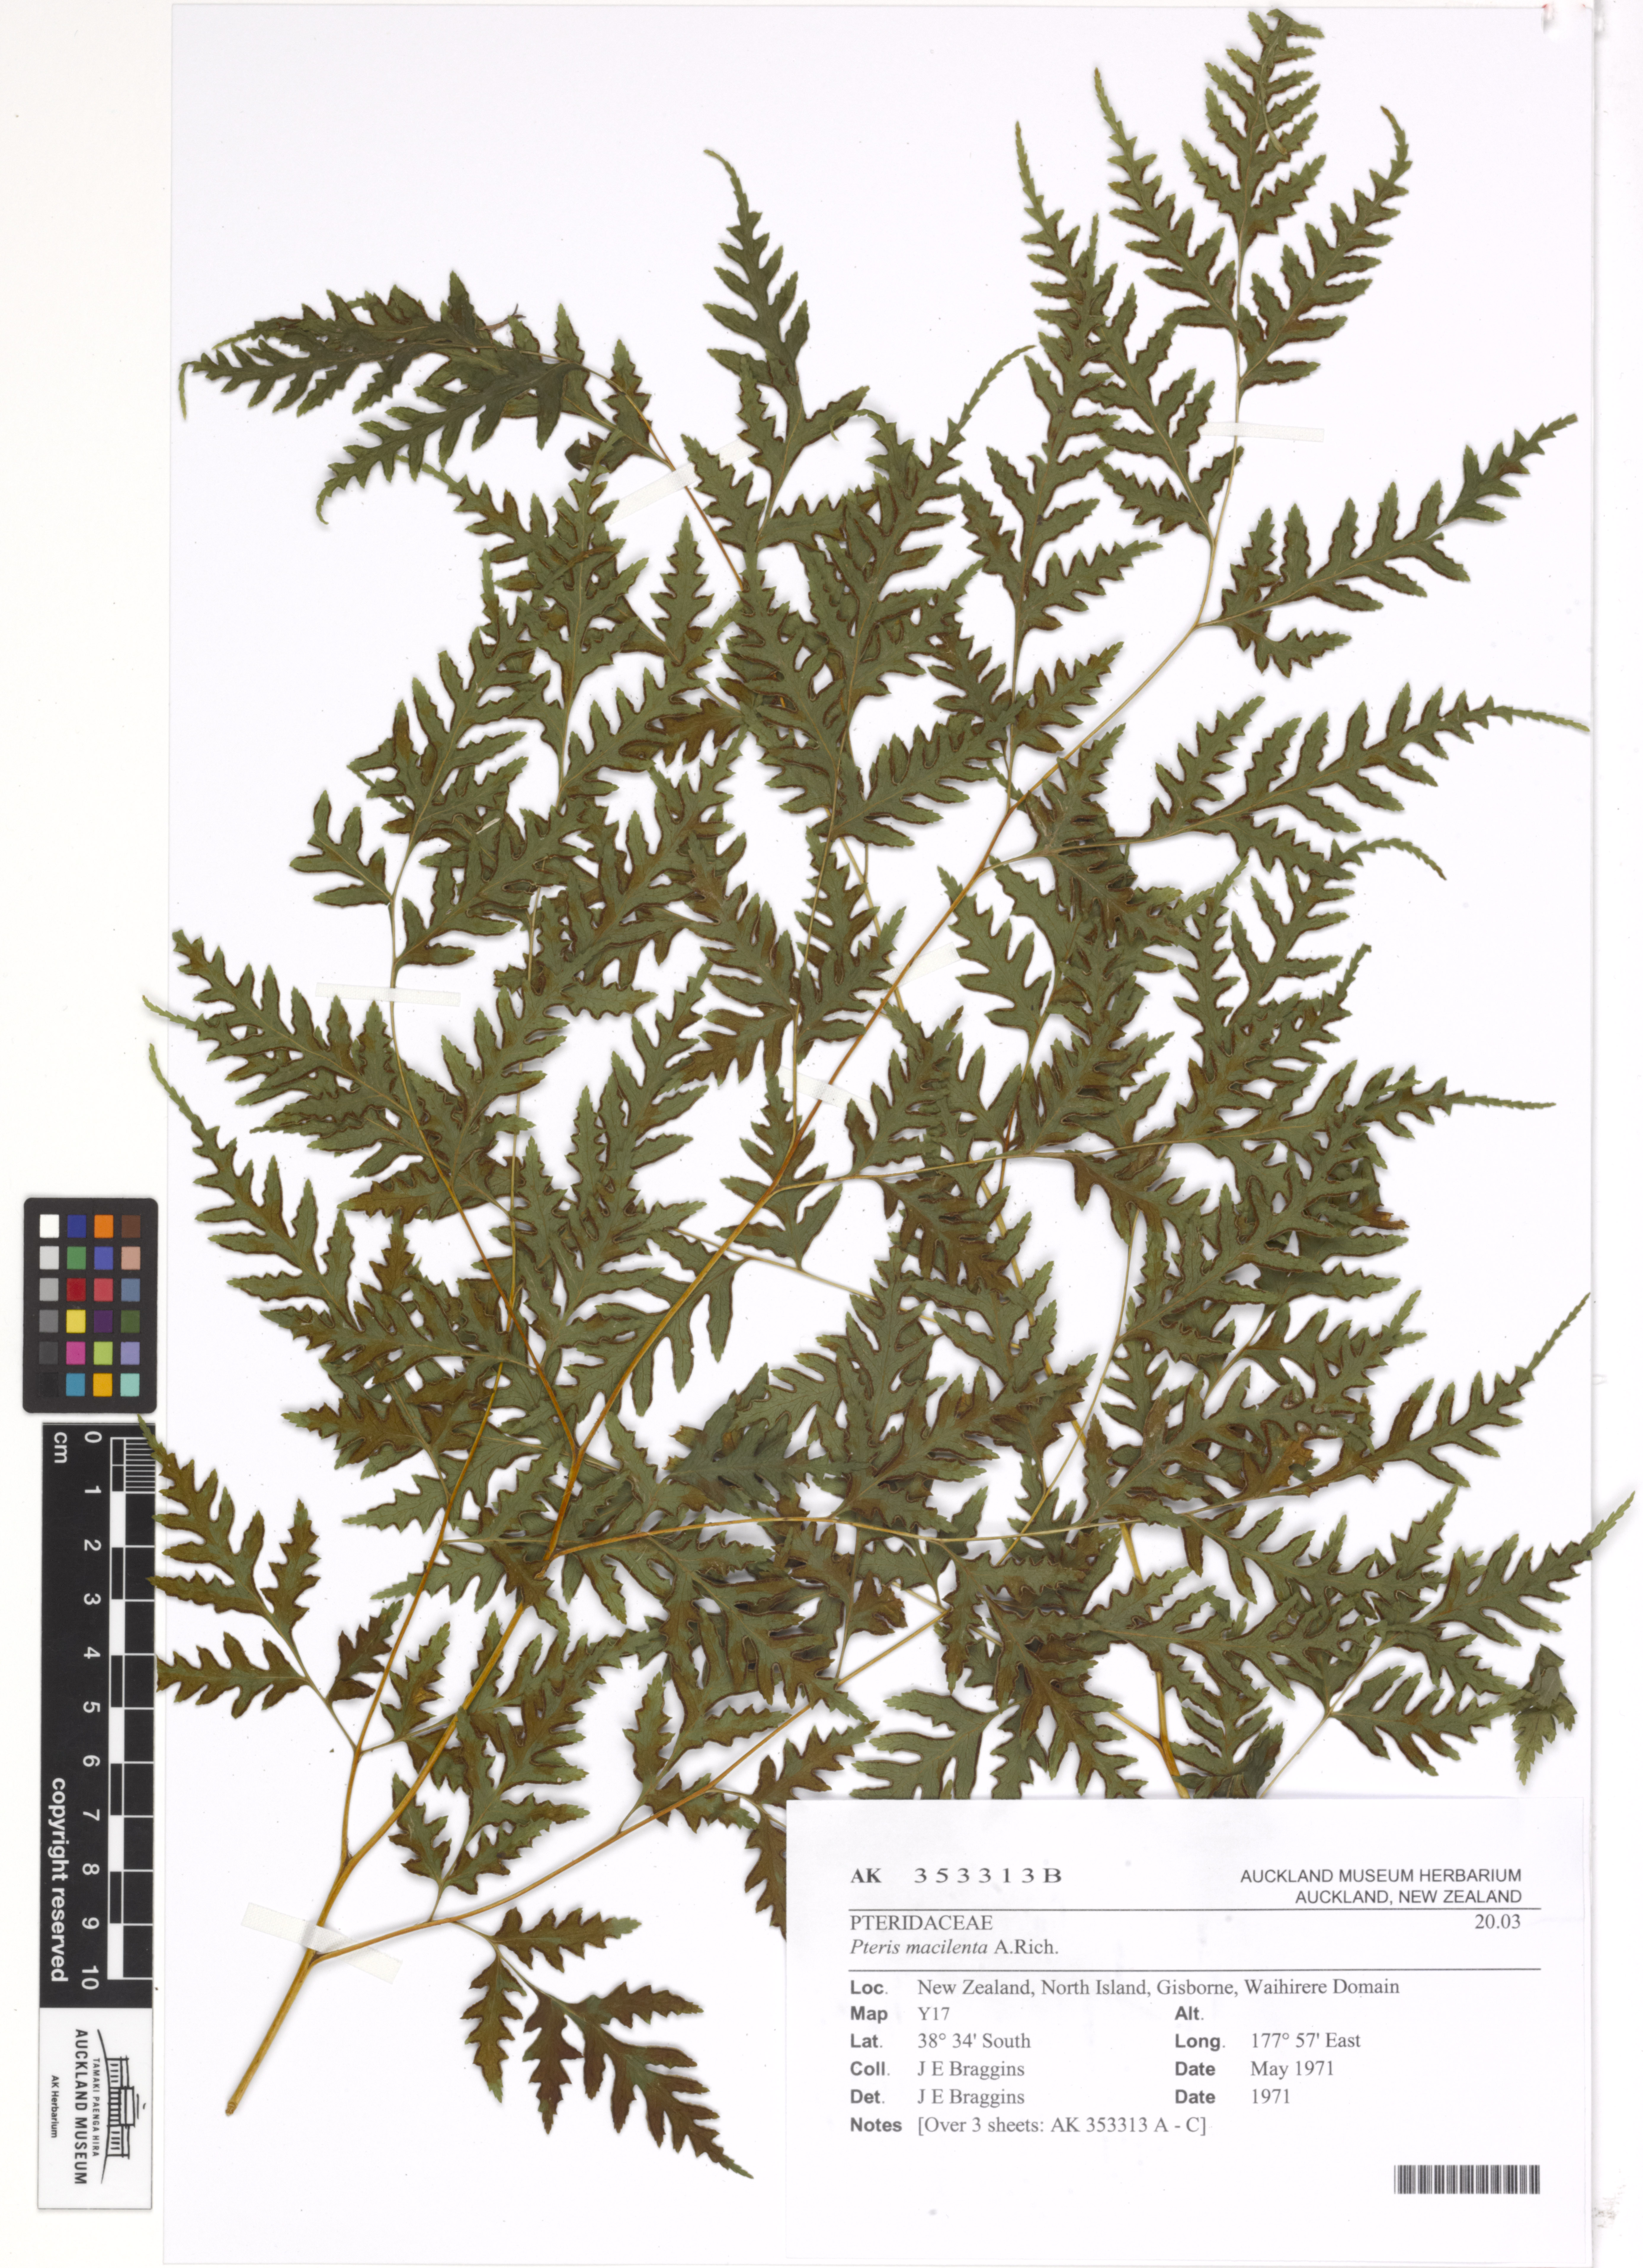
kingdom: Plantae
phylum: Tracheophyta
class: Polypodiopsida
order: Polypodiales
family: Pteridaceae
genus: Pteris
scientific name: Pteris macilenta
